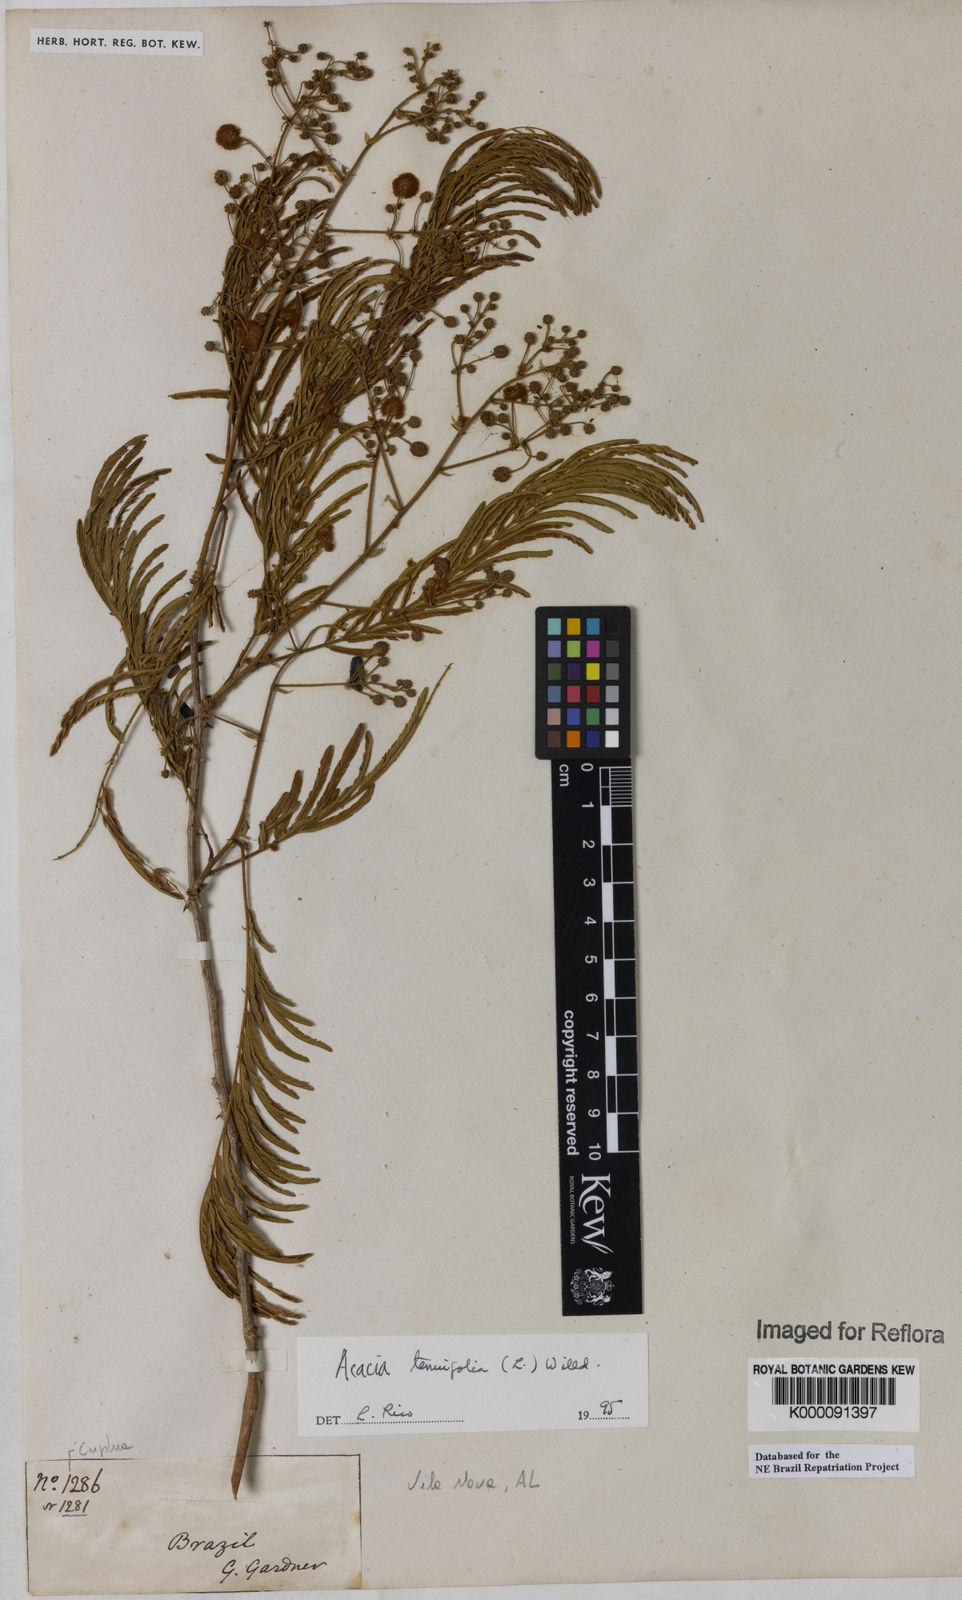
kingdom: Plantae
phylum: Tracheophyta
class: Magnoliopsida
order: Fabales
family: Fabaceae
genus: Senegalia
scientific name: Senegalia tenuifolia
